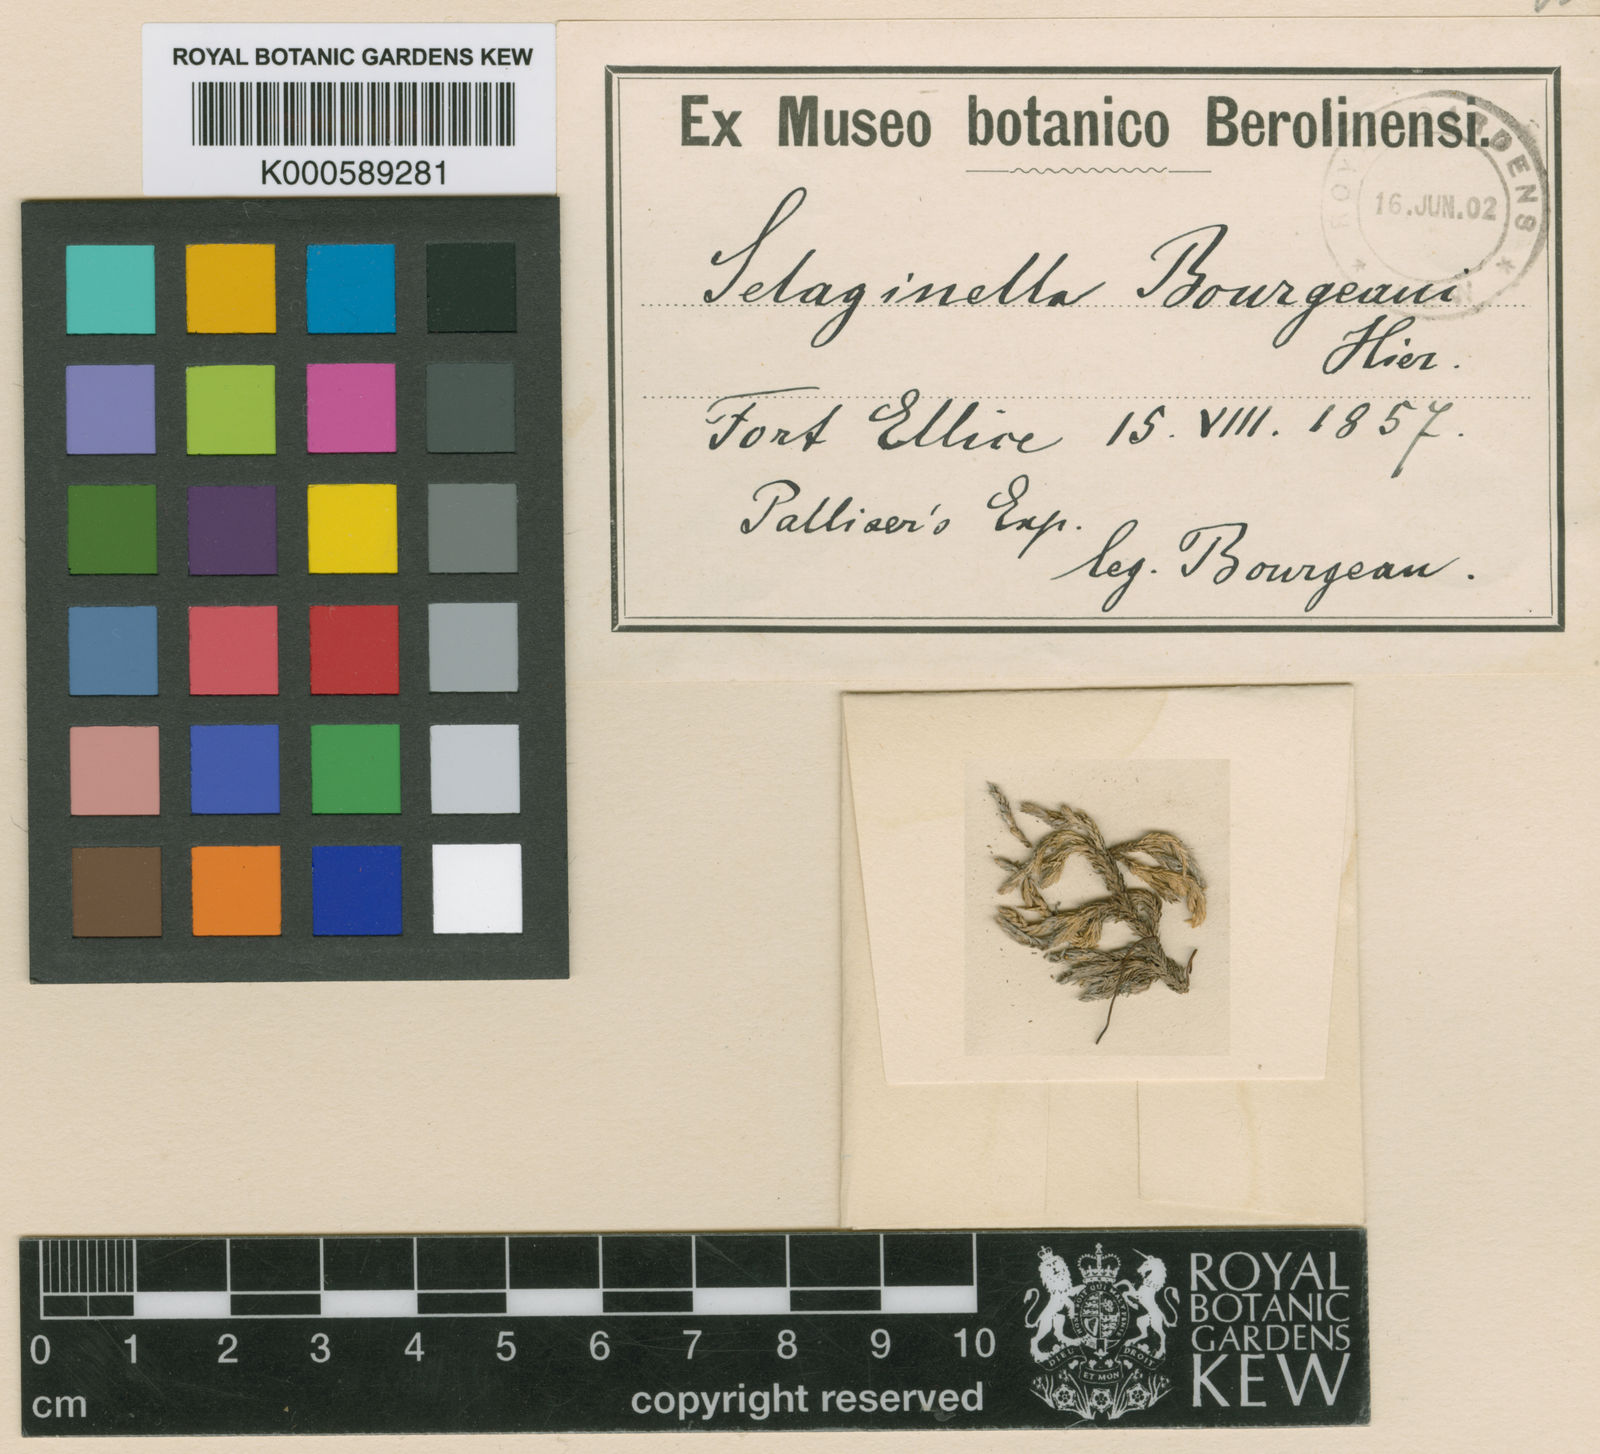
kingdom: Plantae
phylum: Tracheophyta
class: Lycopodiopsida
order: Selaginellales
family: Selaginellaceae
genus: Selaginella
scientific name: Selaginella rupestris
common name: Dwarf spikemoss
